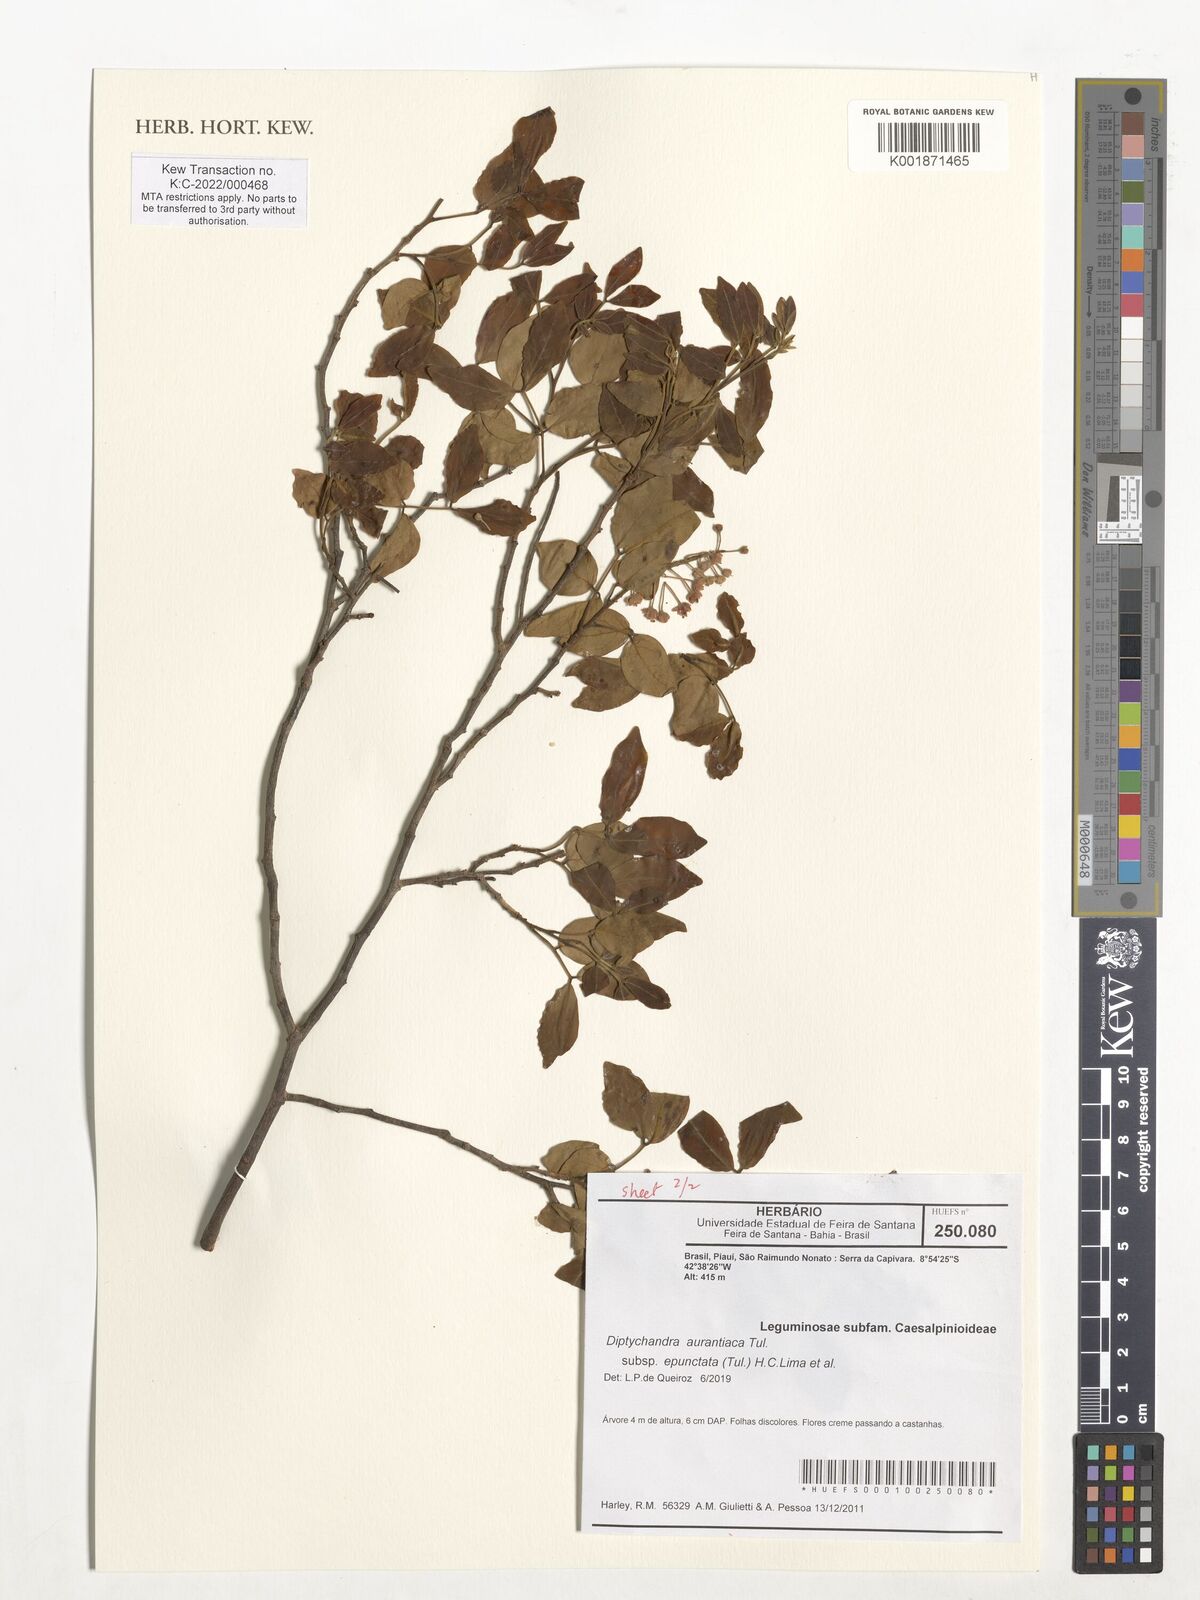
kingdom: Plantae
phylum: Tracheophyta
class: Magnoliopsida
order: Fabales
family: Fabaceae
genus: Diptychandra
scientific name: Diptychandra aurantiaca
